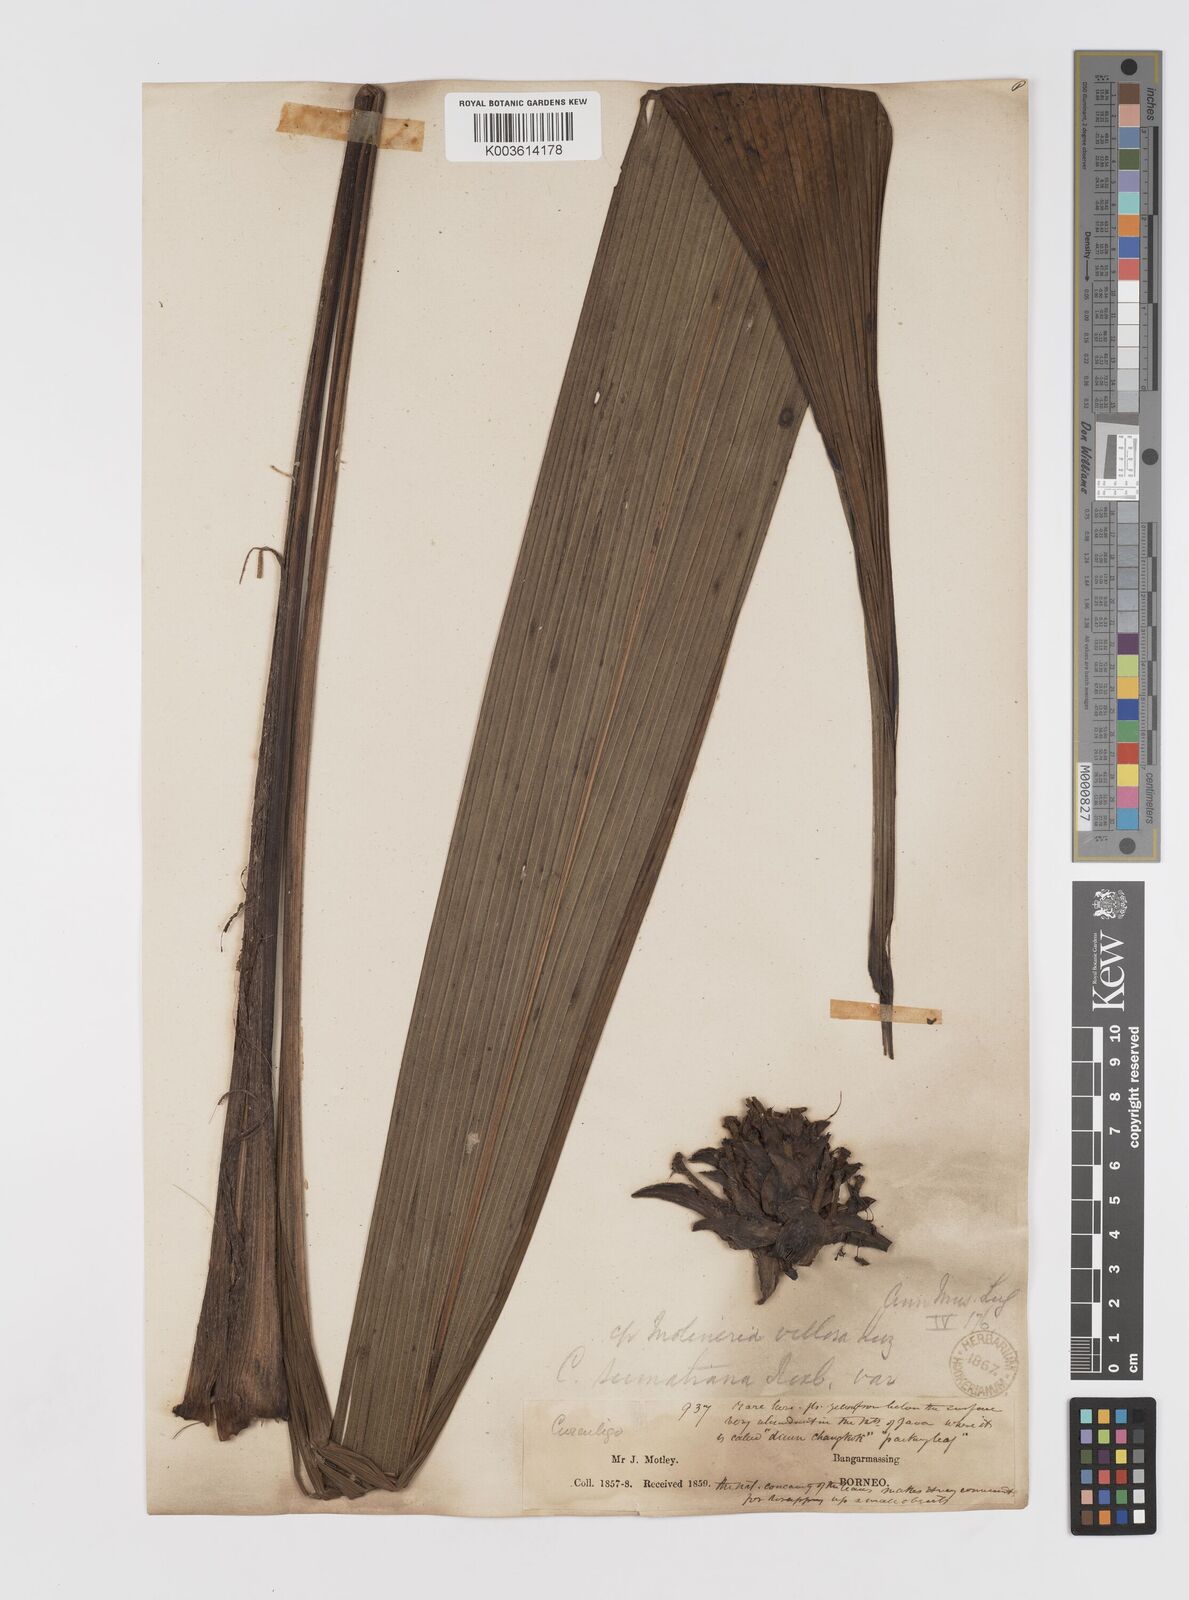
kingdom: Plantae
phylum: Tracheophyta
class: Liliopsida
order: Asparagales
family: Hypoxidaceae
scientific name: Hypoxidaceae
